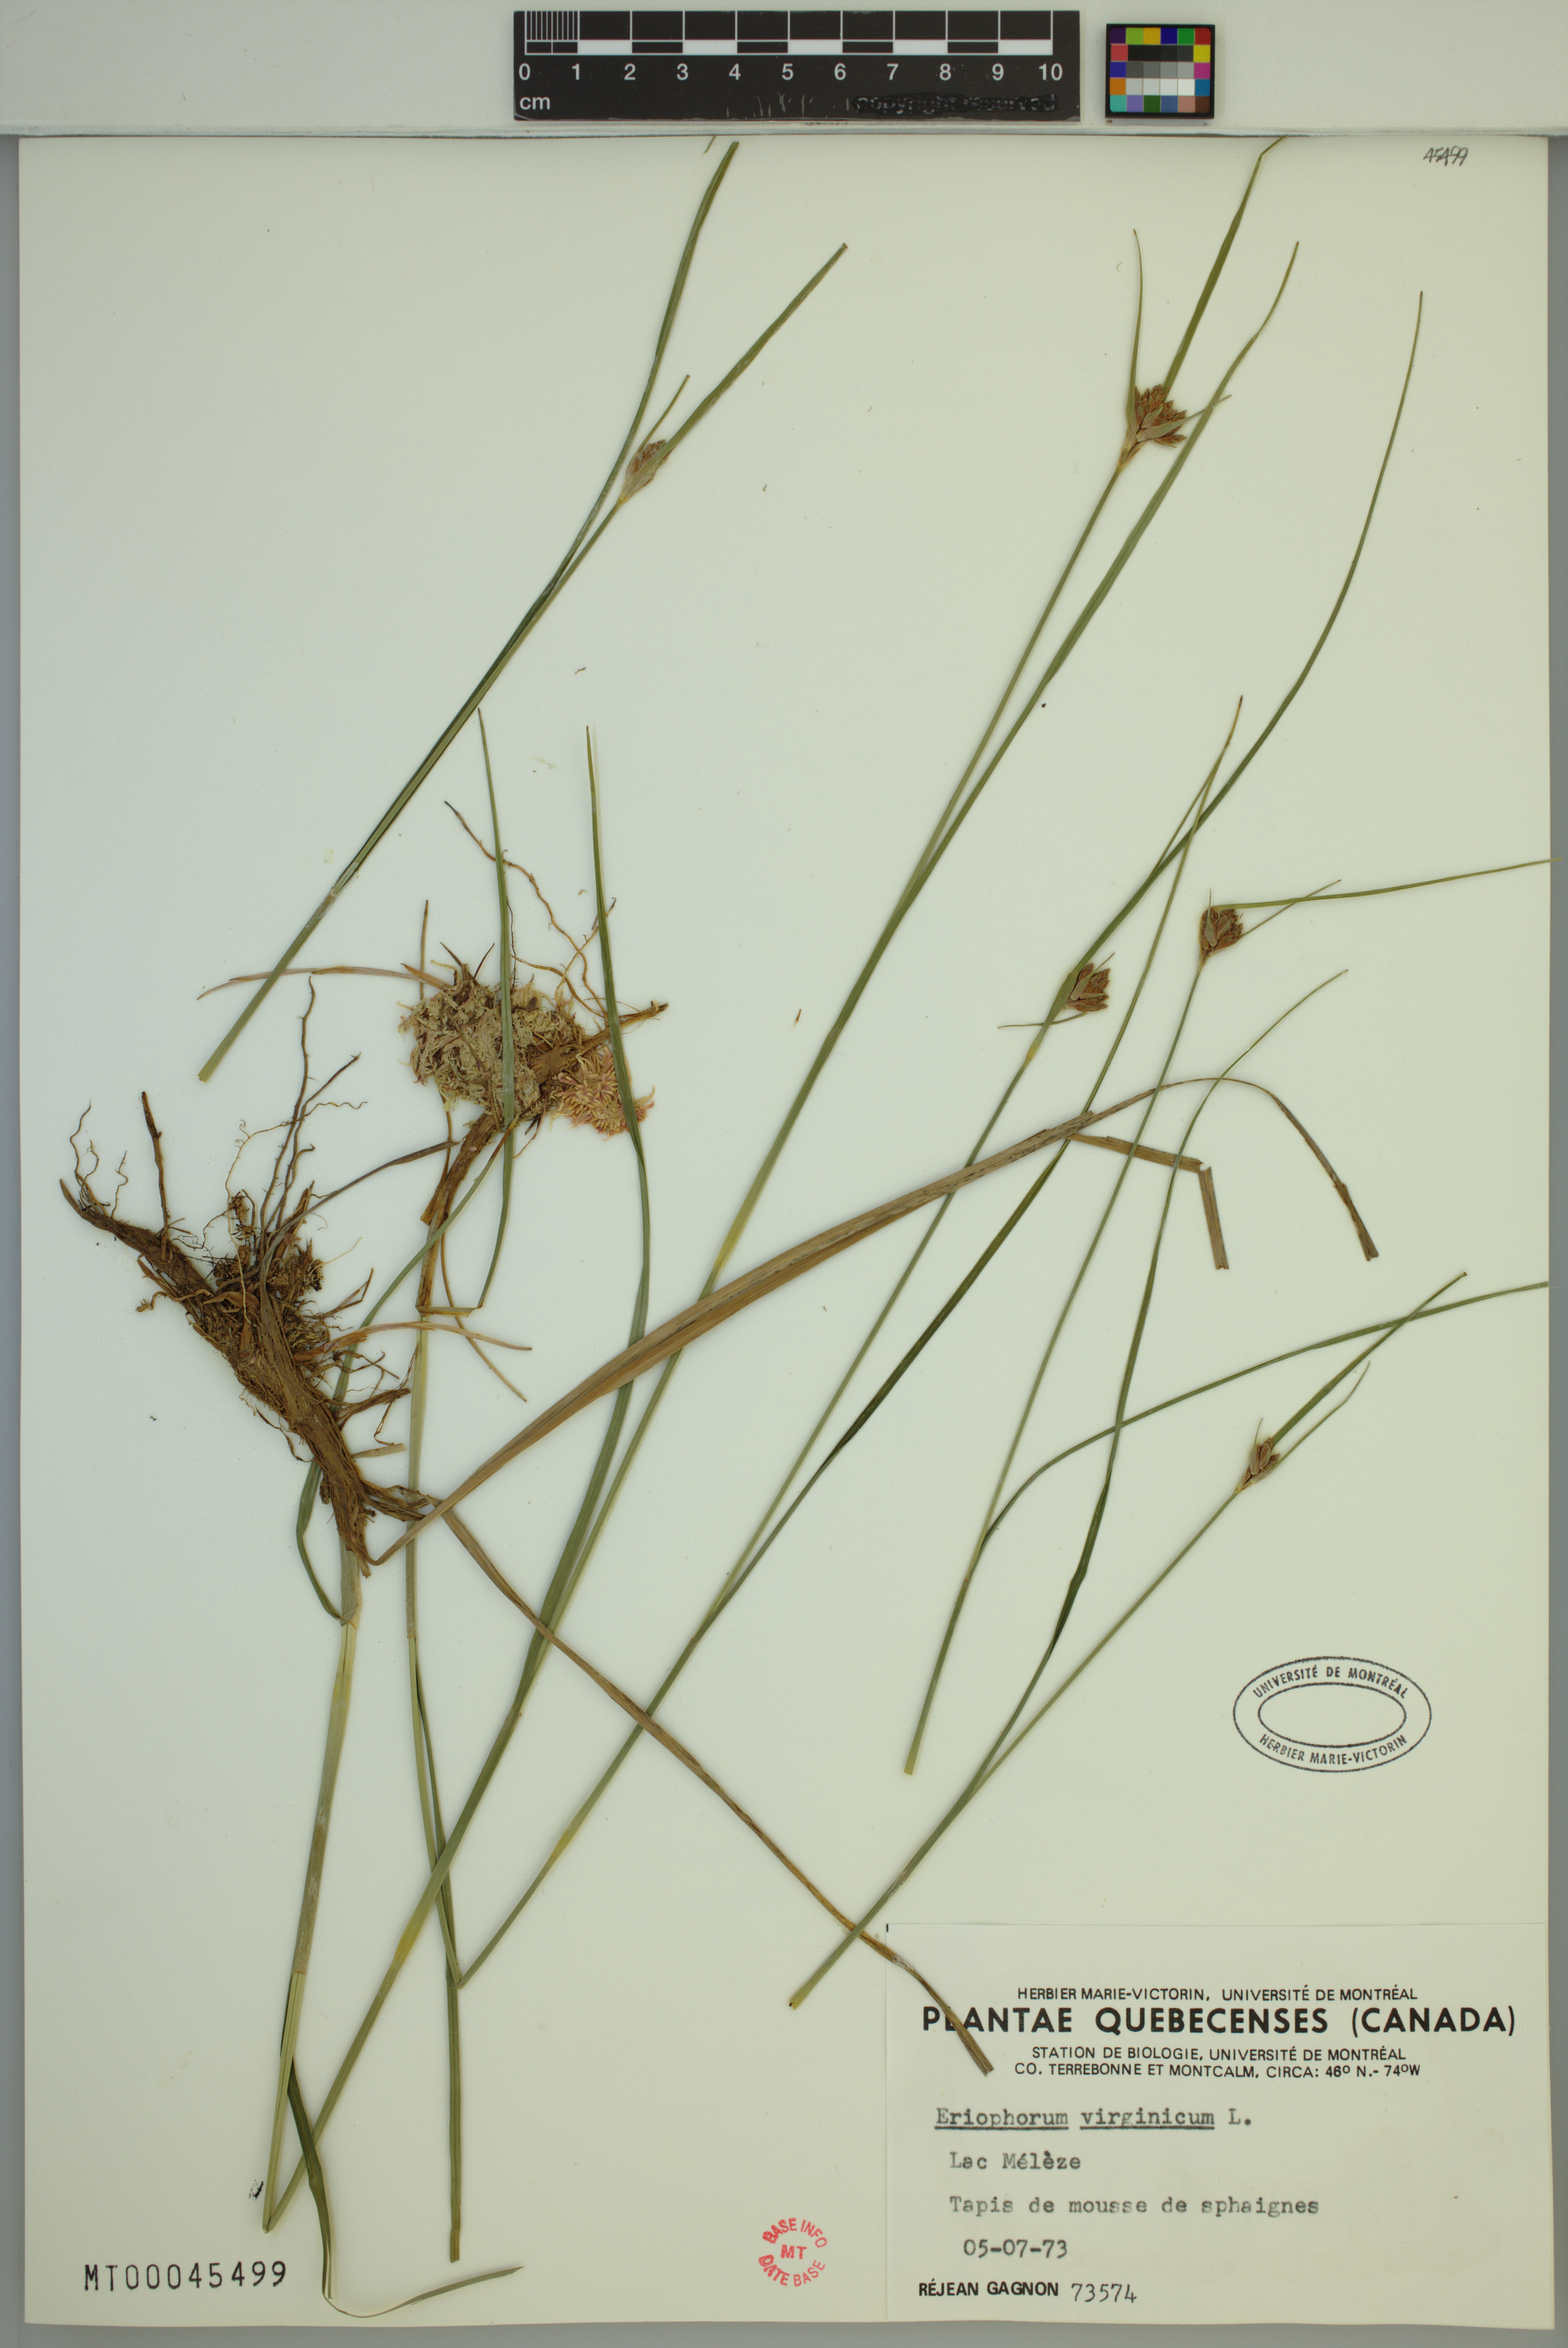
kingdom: Plantae
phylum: Tracheophyta
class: Liliopsida
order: Poales
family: Cyperaceae
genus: Eriophorum
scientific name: Eriophorum virginicum
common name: Tawny cottongrass
